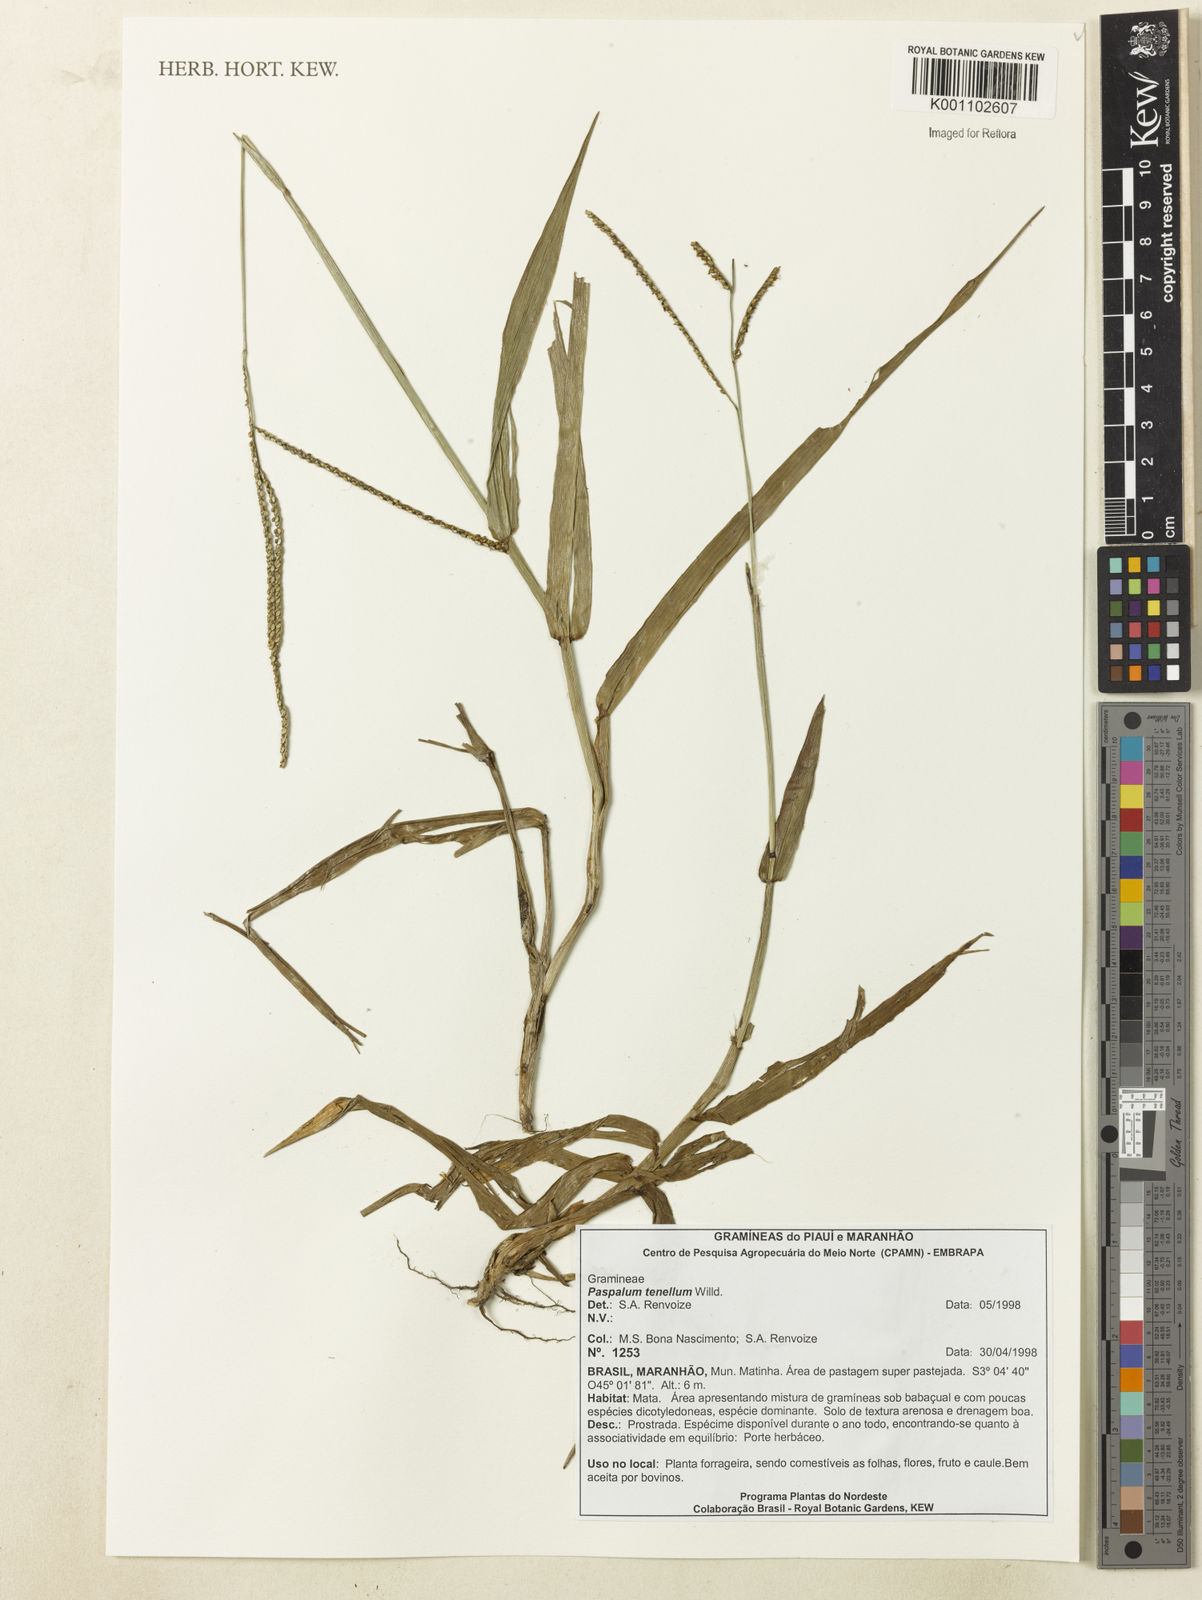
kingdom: Plantae
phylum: Tracheophyta
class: Liliopsida
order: Poales
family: Poaceae
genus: Paspalum
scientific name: Paspalum tenellum
